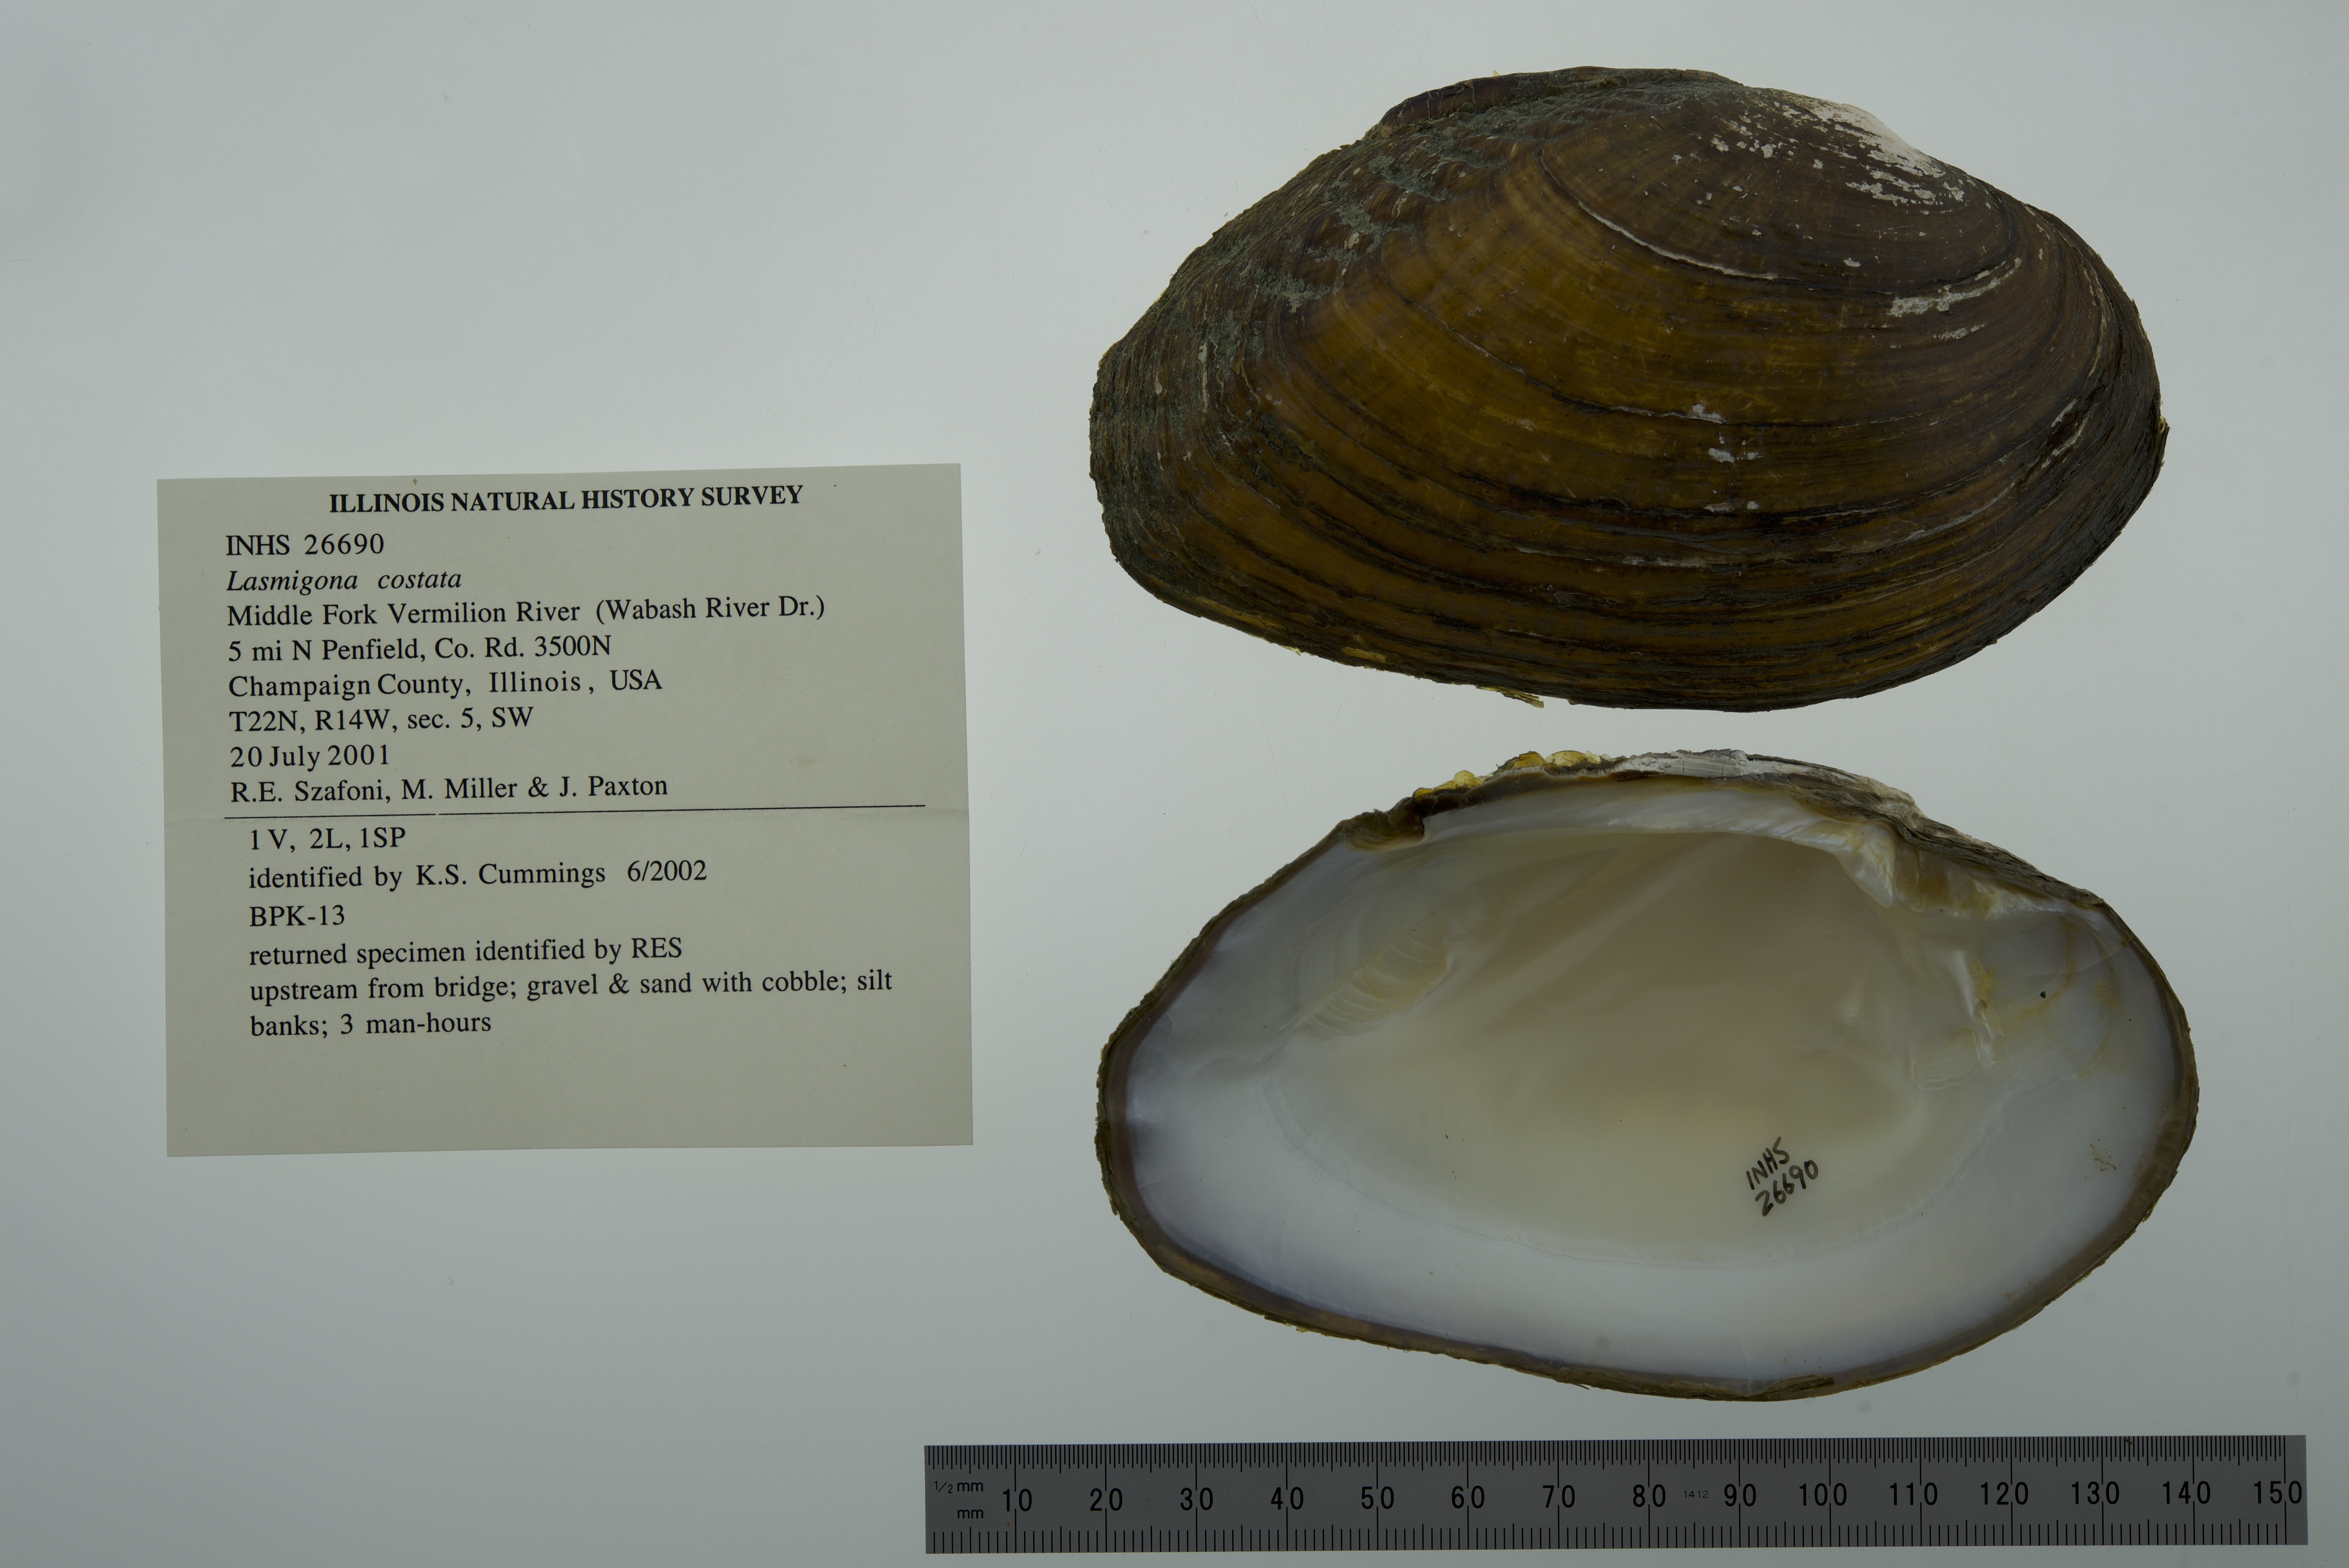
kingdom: Animalia
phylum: Mollusca
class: Bivalvia
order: Unionida
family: Unionidae
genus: Lasmigona
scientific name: Lasmigona costata
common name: Flutedshell
